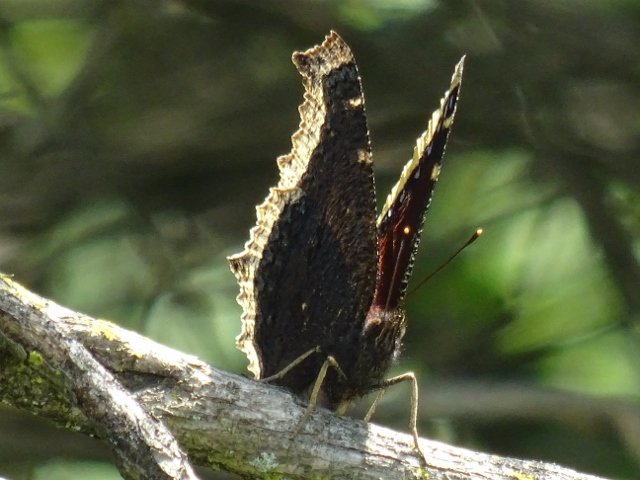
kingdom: Animalia
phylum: Arthropoda
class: Insecta
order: Lepidoptera
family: Nymphalidae
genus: Nymphalis
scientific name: Nymphalis antiopa
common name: Mourning Cloak
